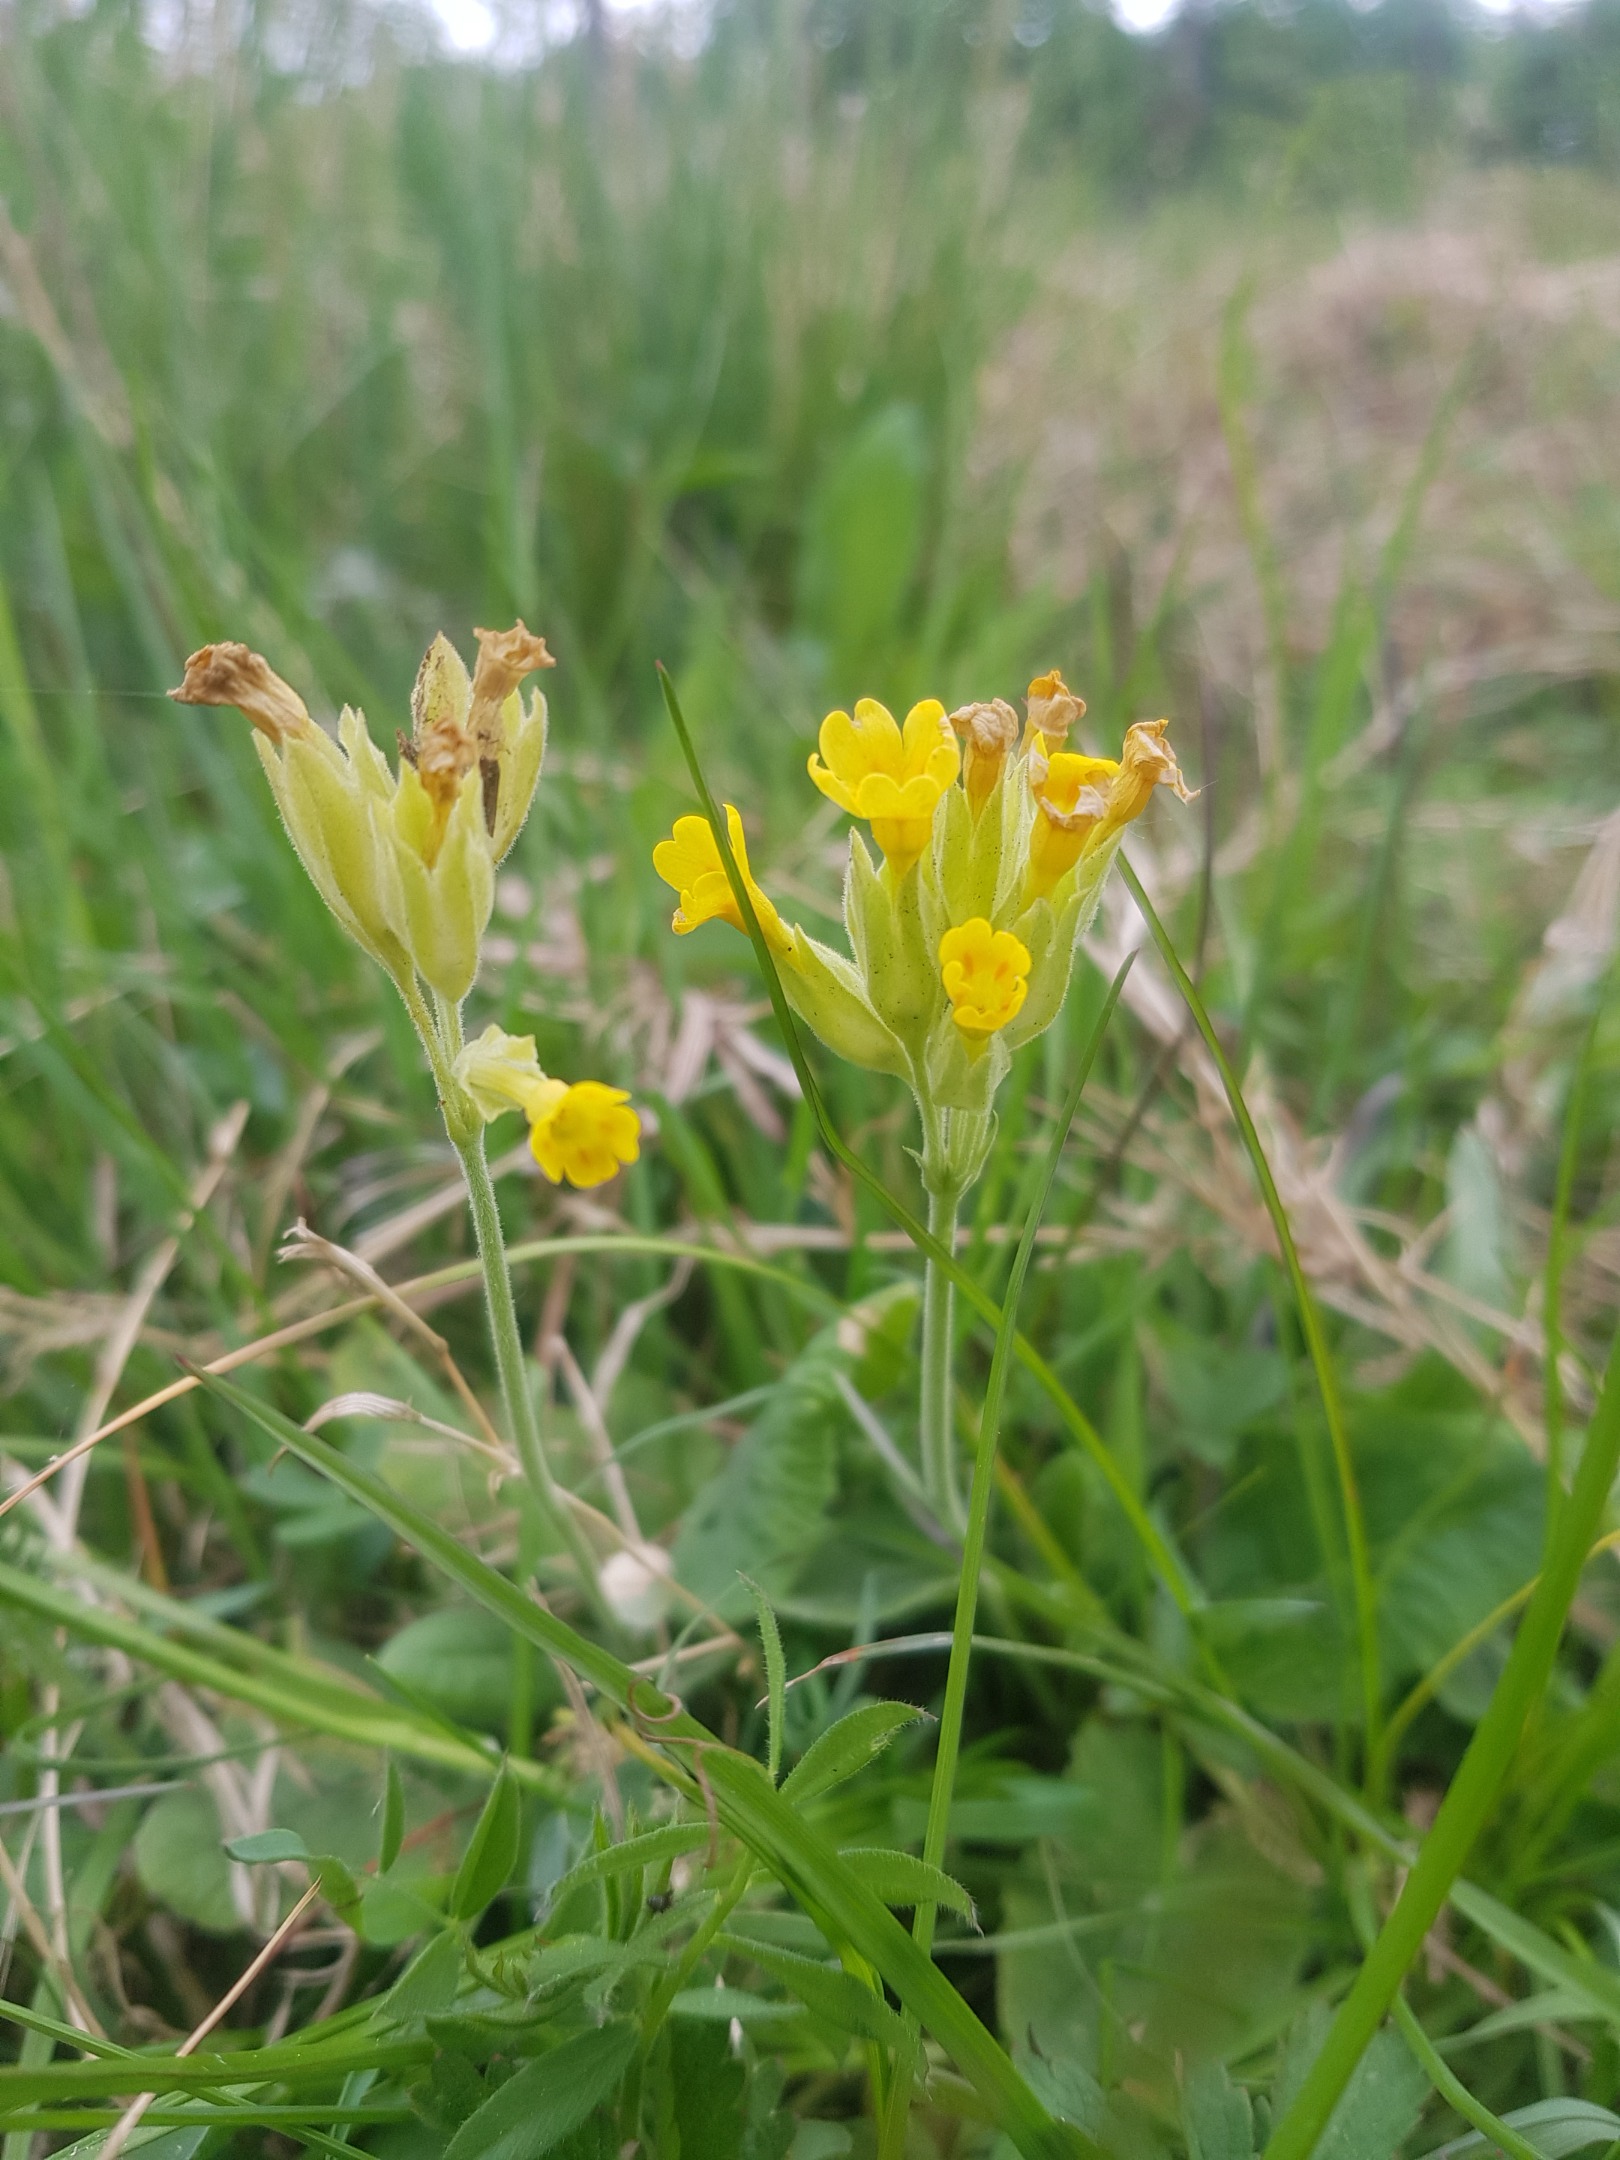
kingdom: Plantae
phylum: Tracheophyta
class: Magnoliopsida
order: Ericales
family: Primulaceae
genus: Primula
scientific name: Primula veris
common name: Hulkravet kodriver
